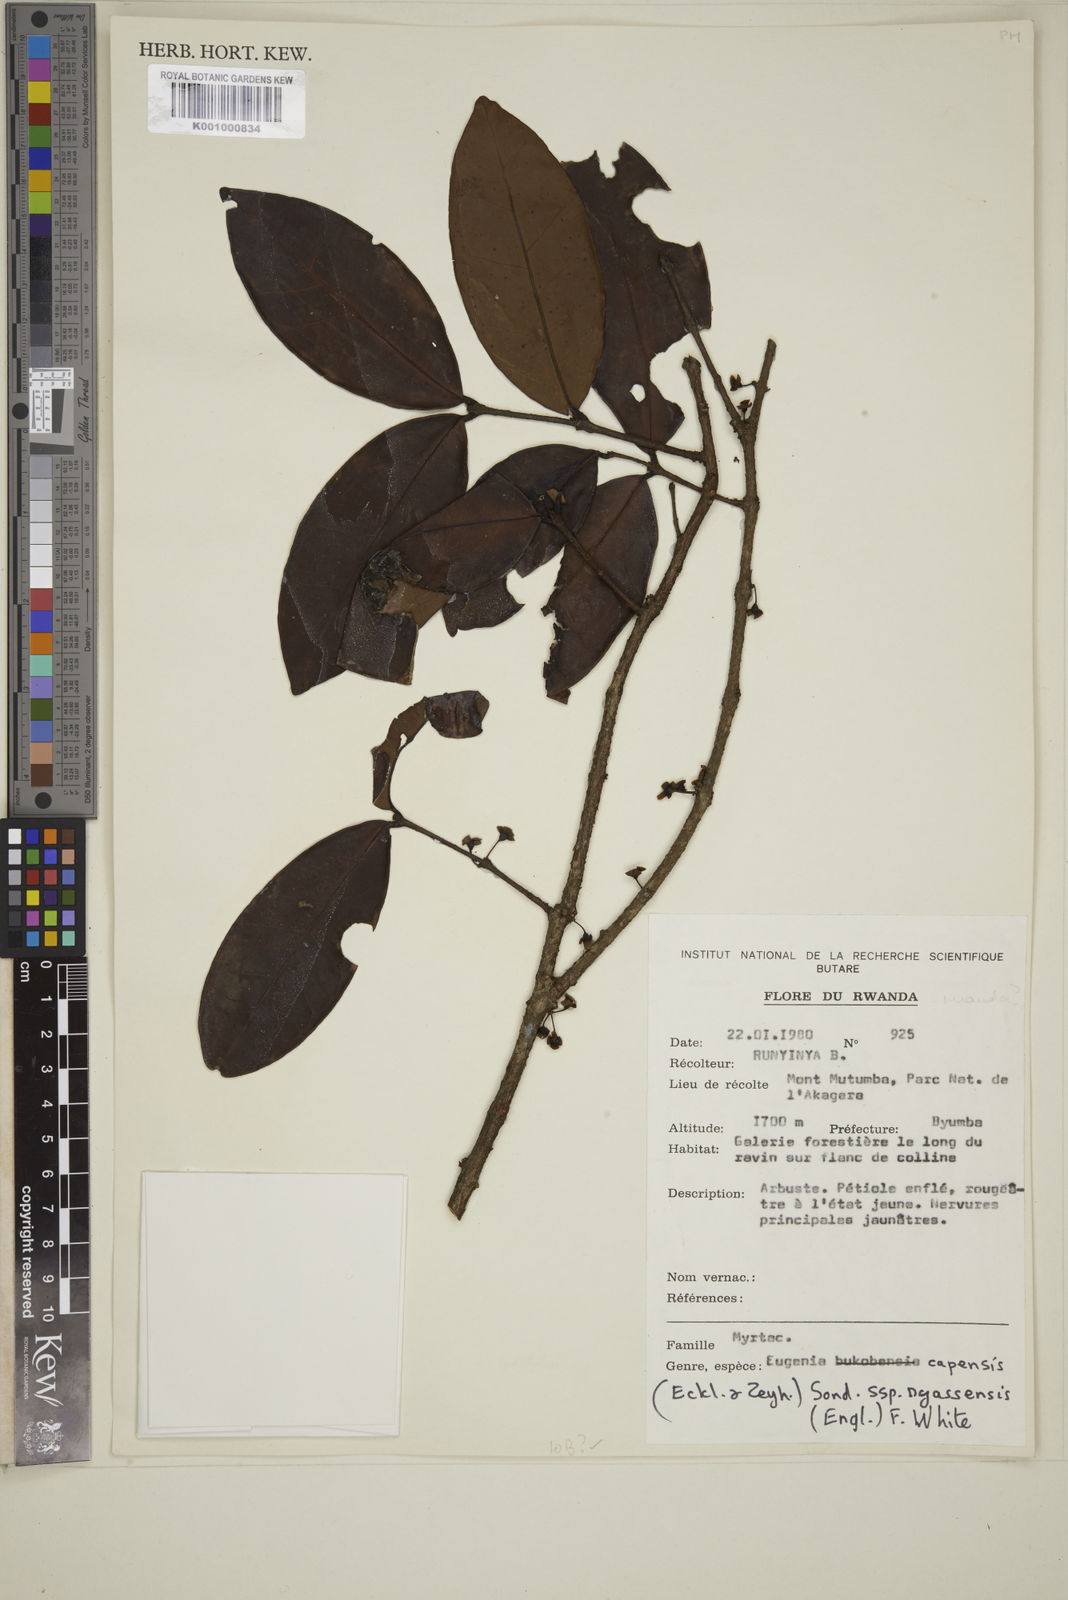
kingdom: Plantae
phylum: Tracheophyta
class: Magnoliopsida
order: Myrtales
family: Myrtaceae
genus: Eugenia
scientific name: Eugenia bukobensis
